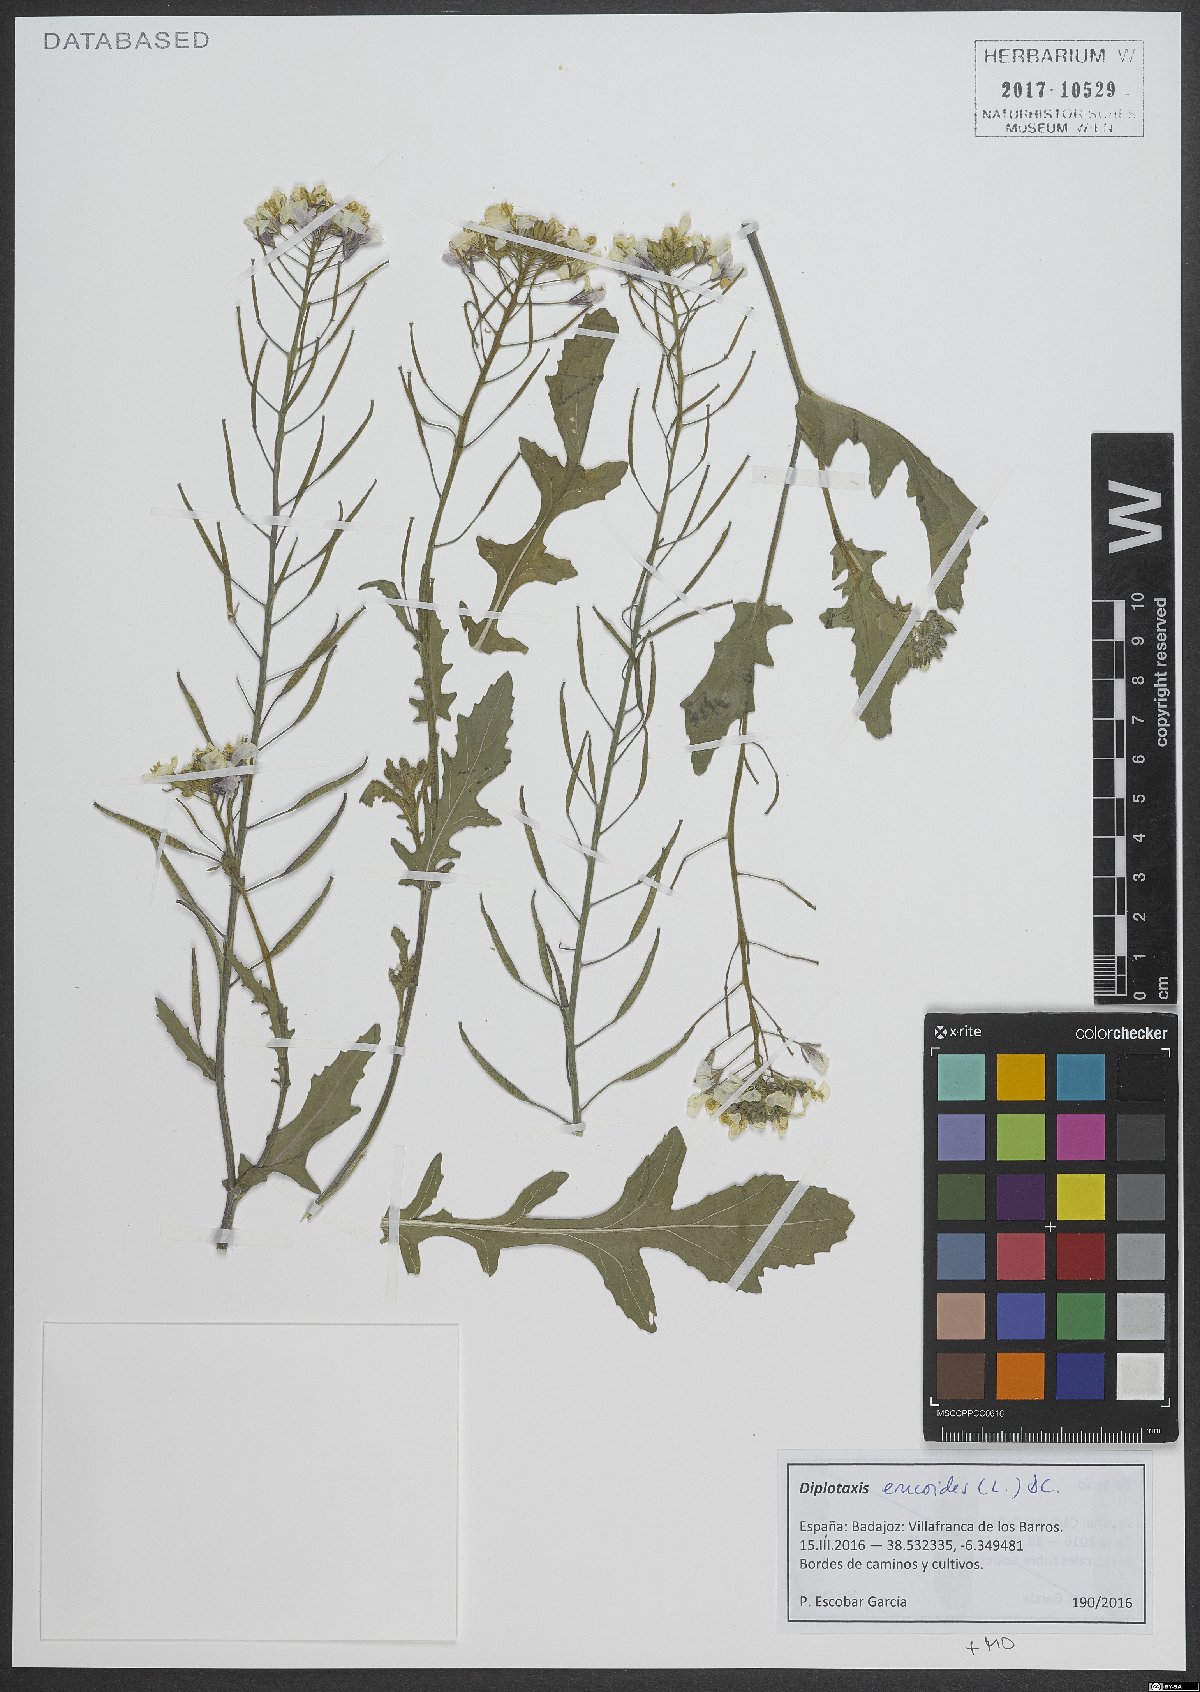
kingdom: Plantae
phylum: Tracheophyta
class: Magnoliopsida
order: Brassicales
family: Brassicaceae
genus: Diplotaxis
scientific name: Diplotaxis erucoides
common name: White rocket
